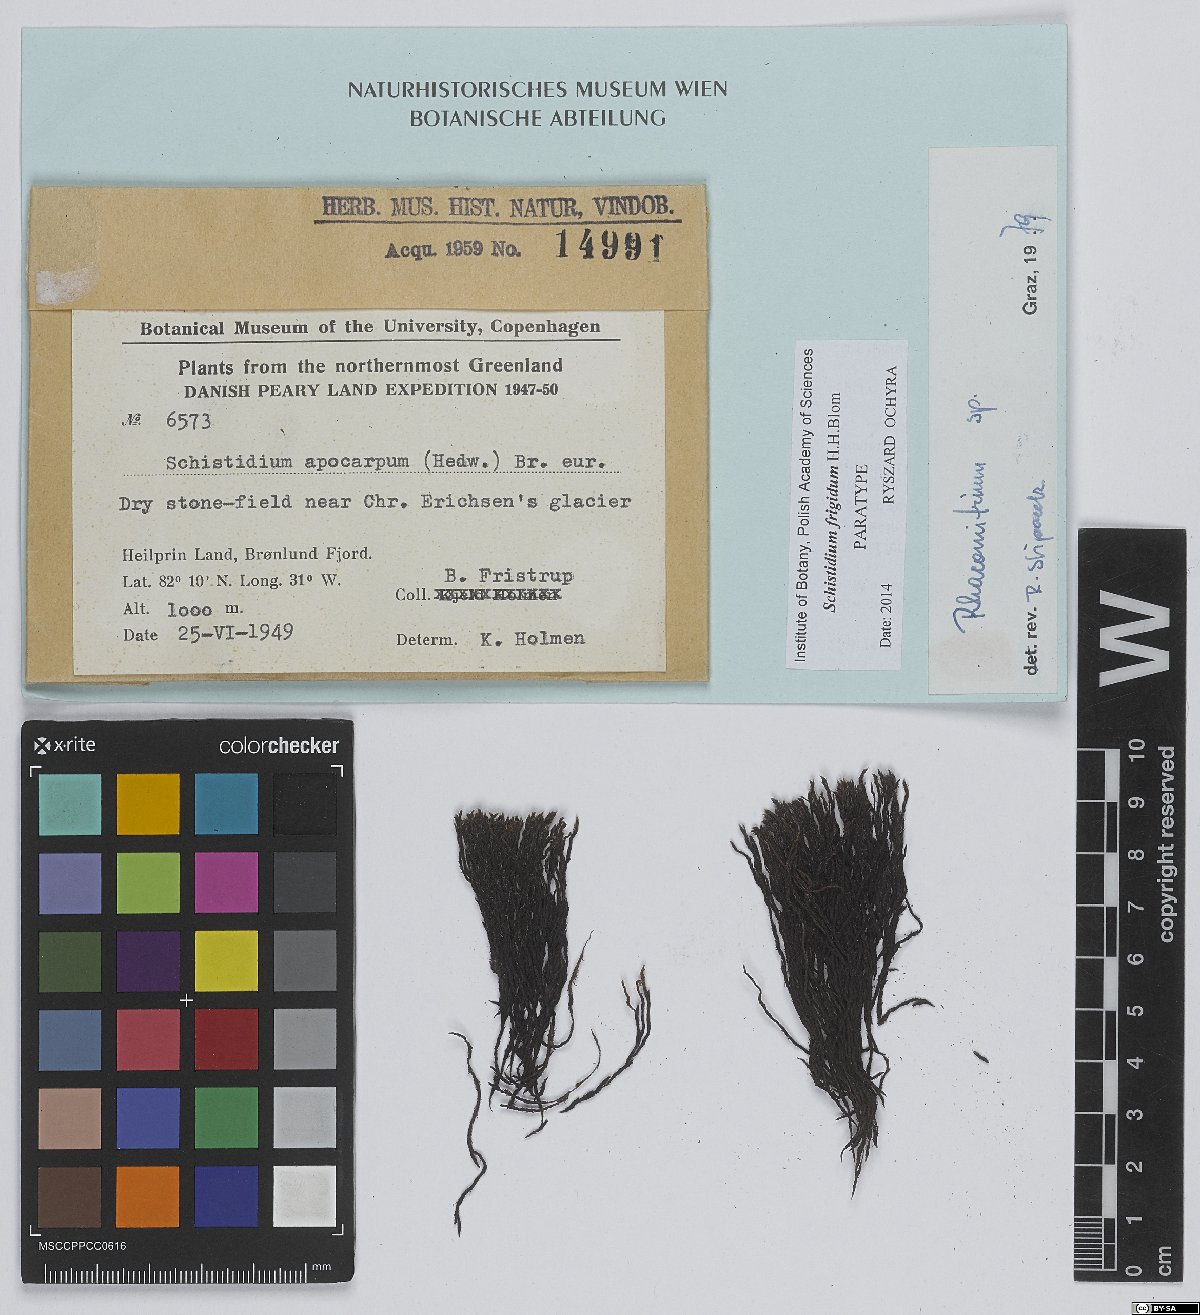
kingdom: Plantae
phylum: Bryophyta
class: Bryopsida
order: Grimmiales
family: Grimmiaceae
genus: Schistidium
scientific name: Schistidium frigidum
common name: Arctic-alpine bloom moss
